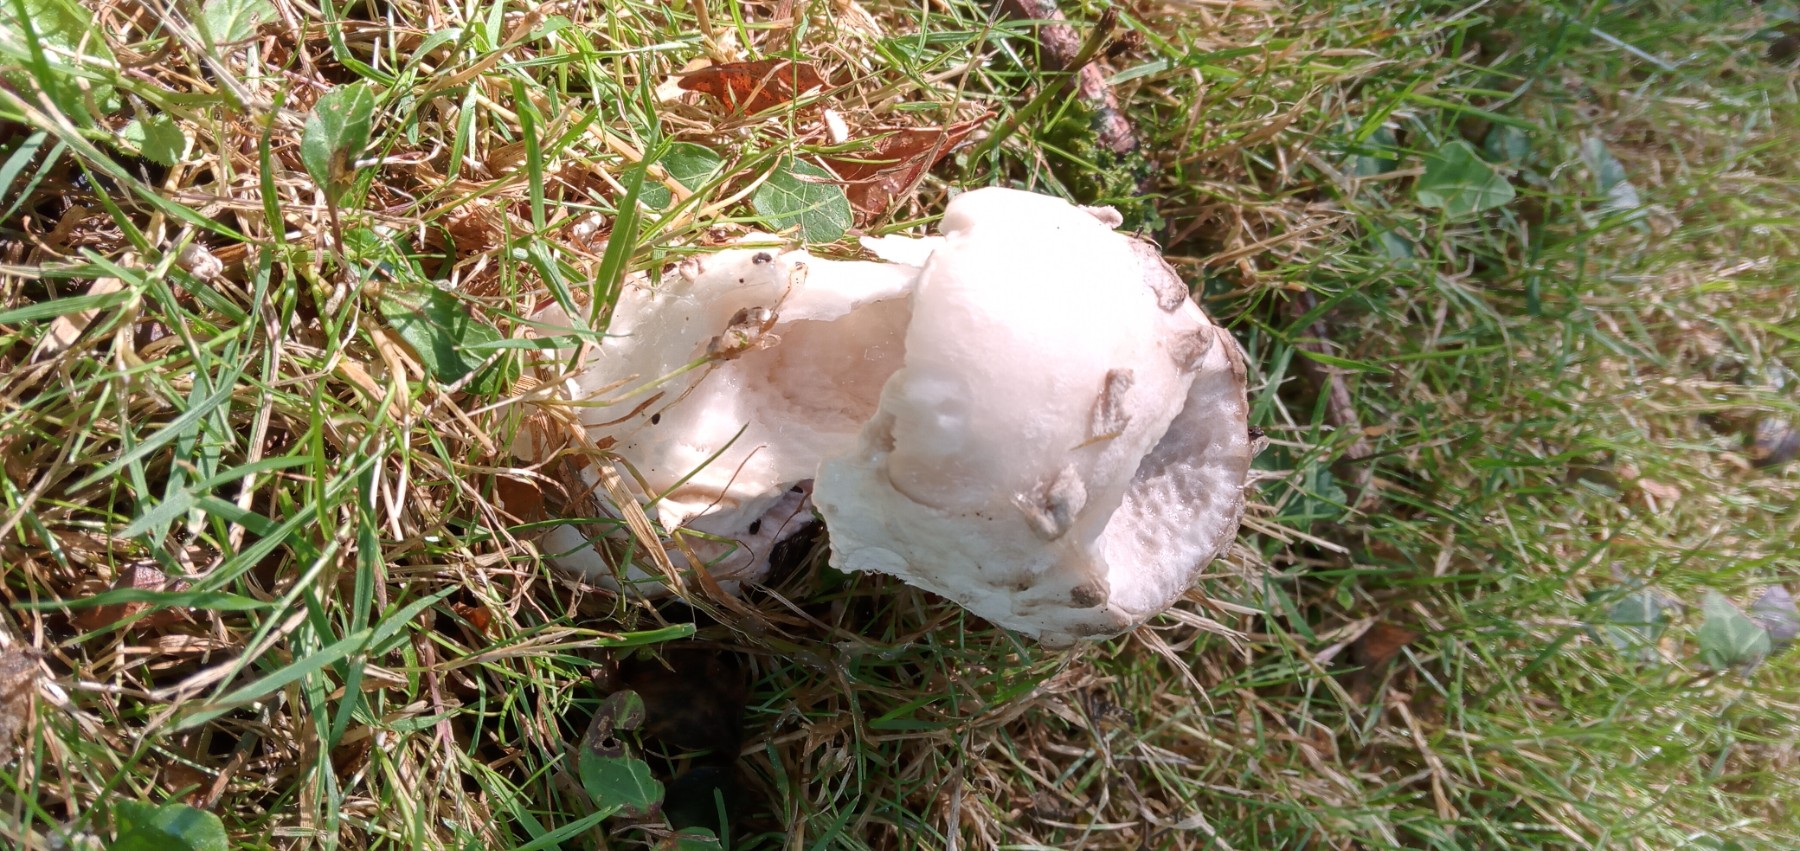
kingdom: Fungi
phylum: Basidiomycota
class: Agaricomycetes
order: Agaricales
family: Amanitaceae
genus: Amanita
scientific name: Amanita
